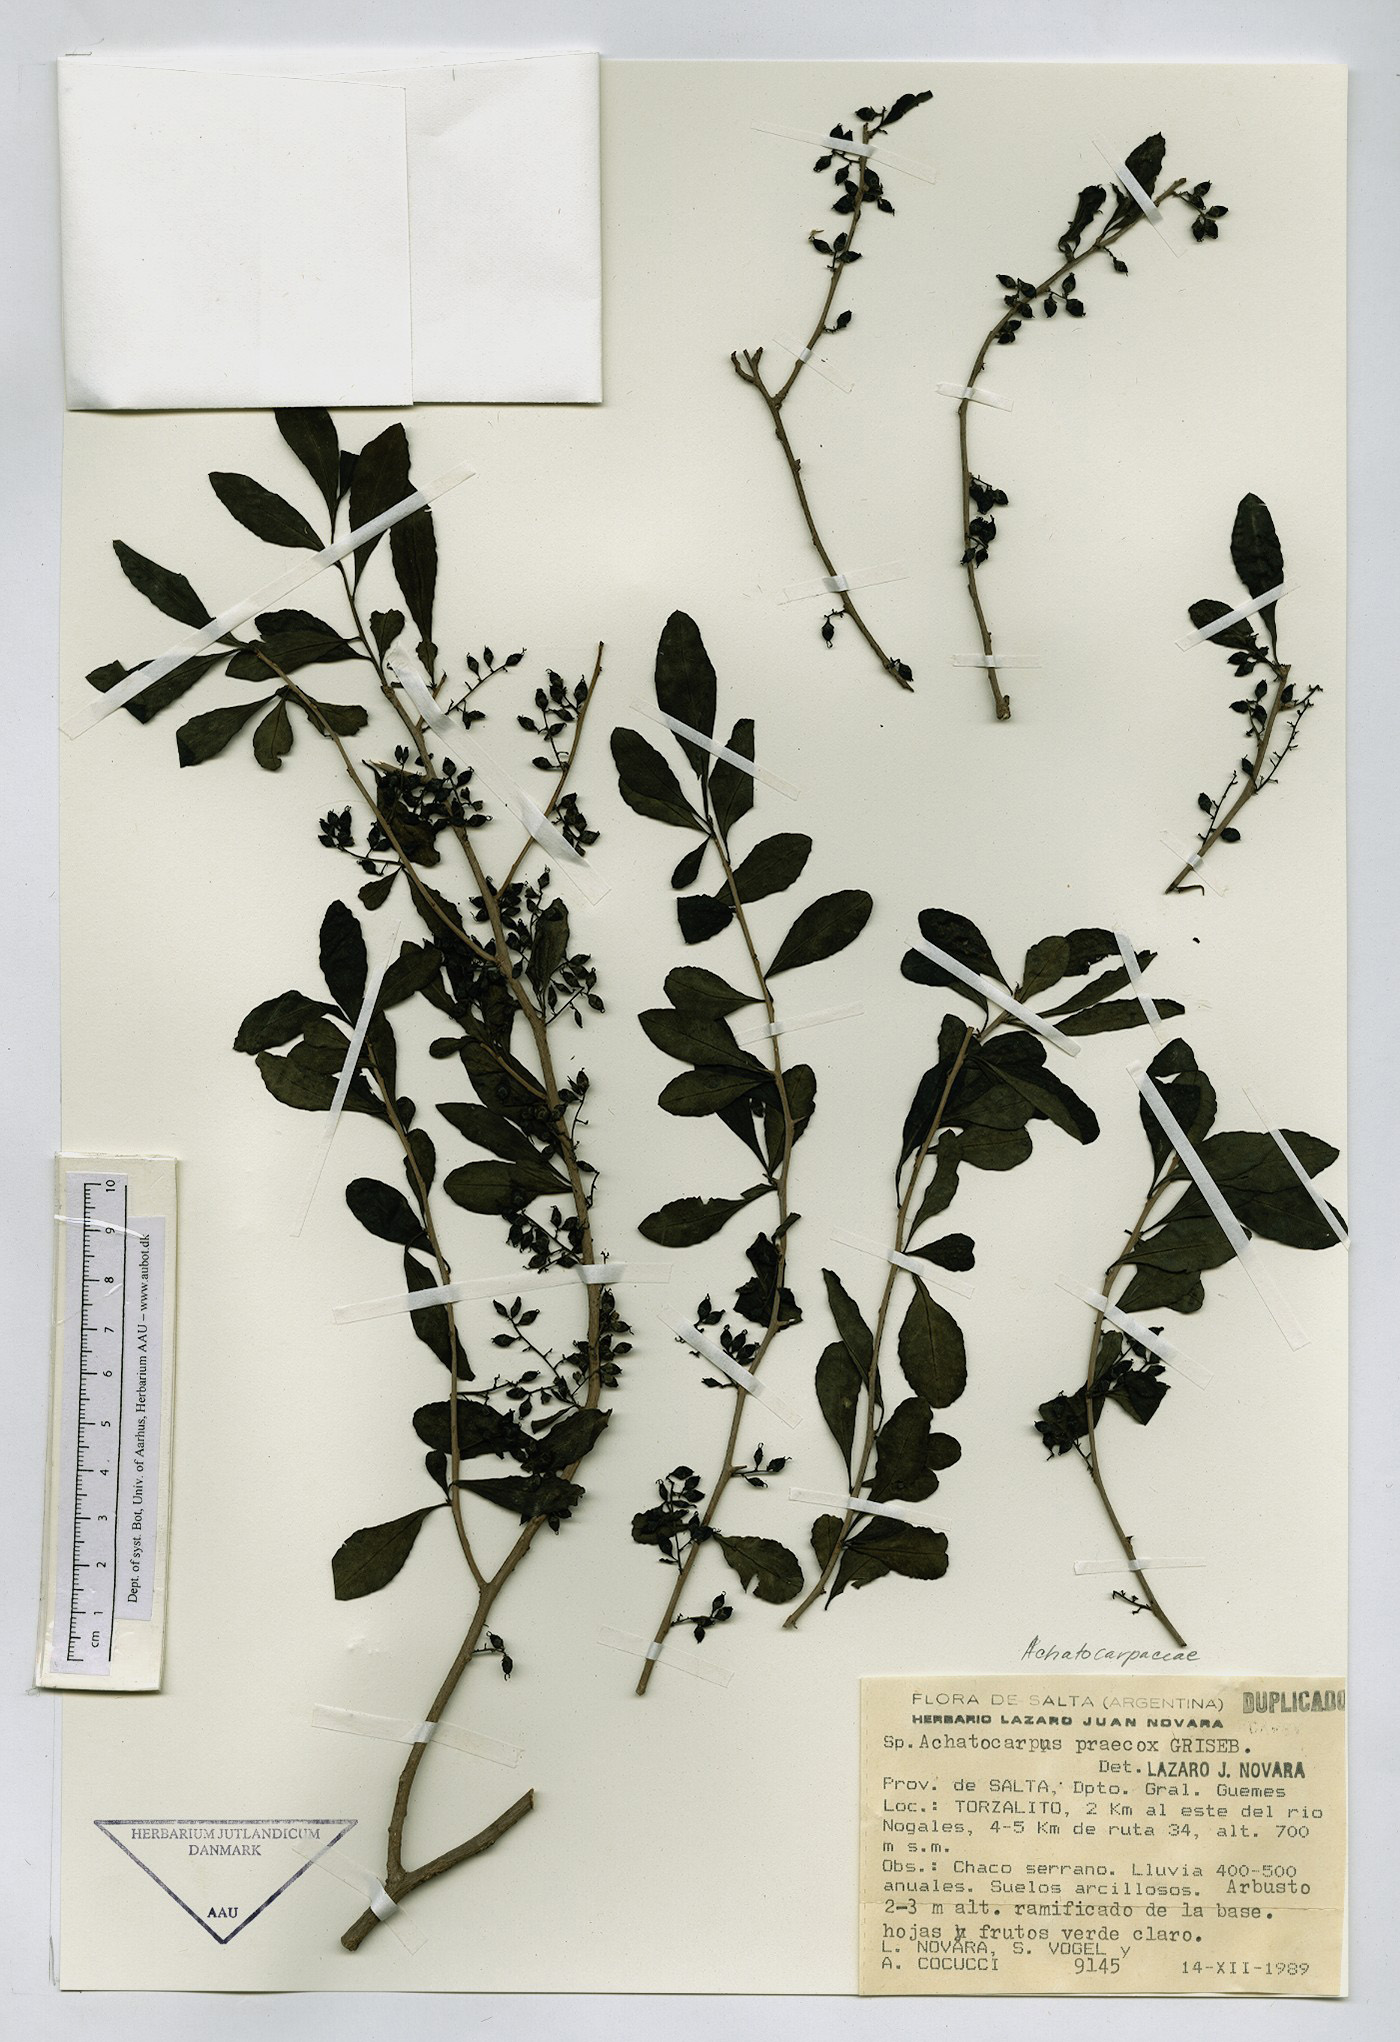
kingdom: Plantae
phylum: Tracheophyta
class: Magnoliopsida
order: Caryophyllales
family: Achatocarpaceae
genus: Achatocarpus
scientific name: Achatocarpus praecox
